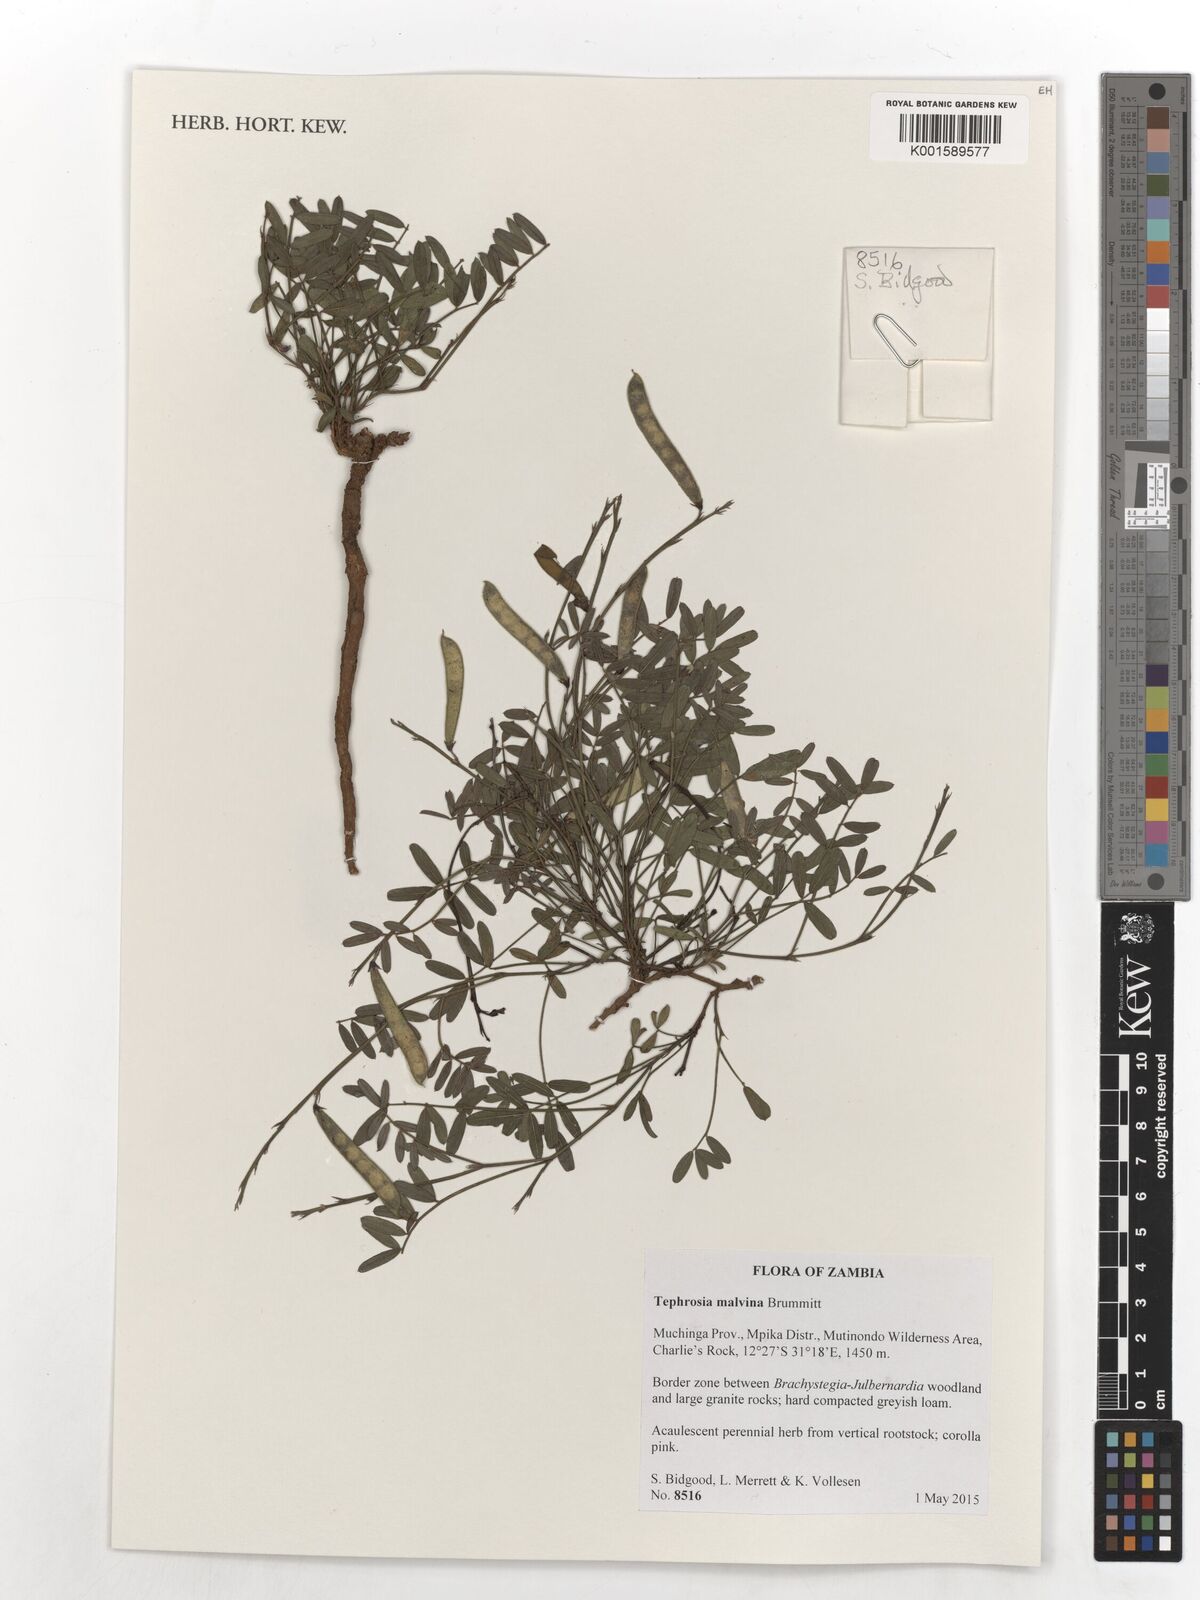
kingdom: Plantae
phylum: Tracheophyta
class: Magnoliopsida
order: Fabales
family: Fabaceae
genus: Tephrosia
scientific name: Tephrosia malvina
